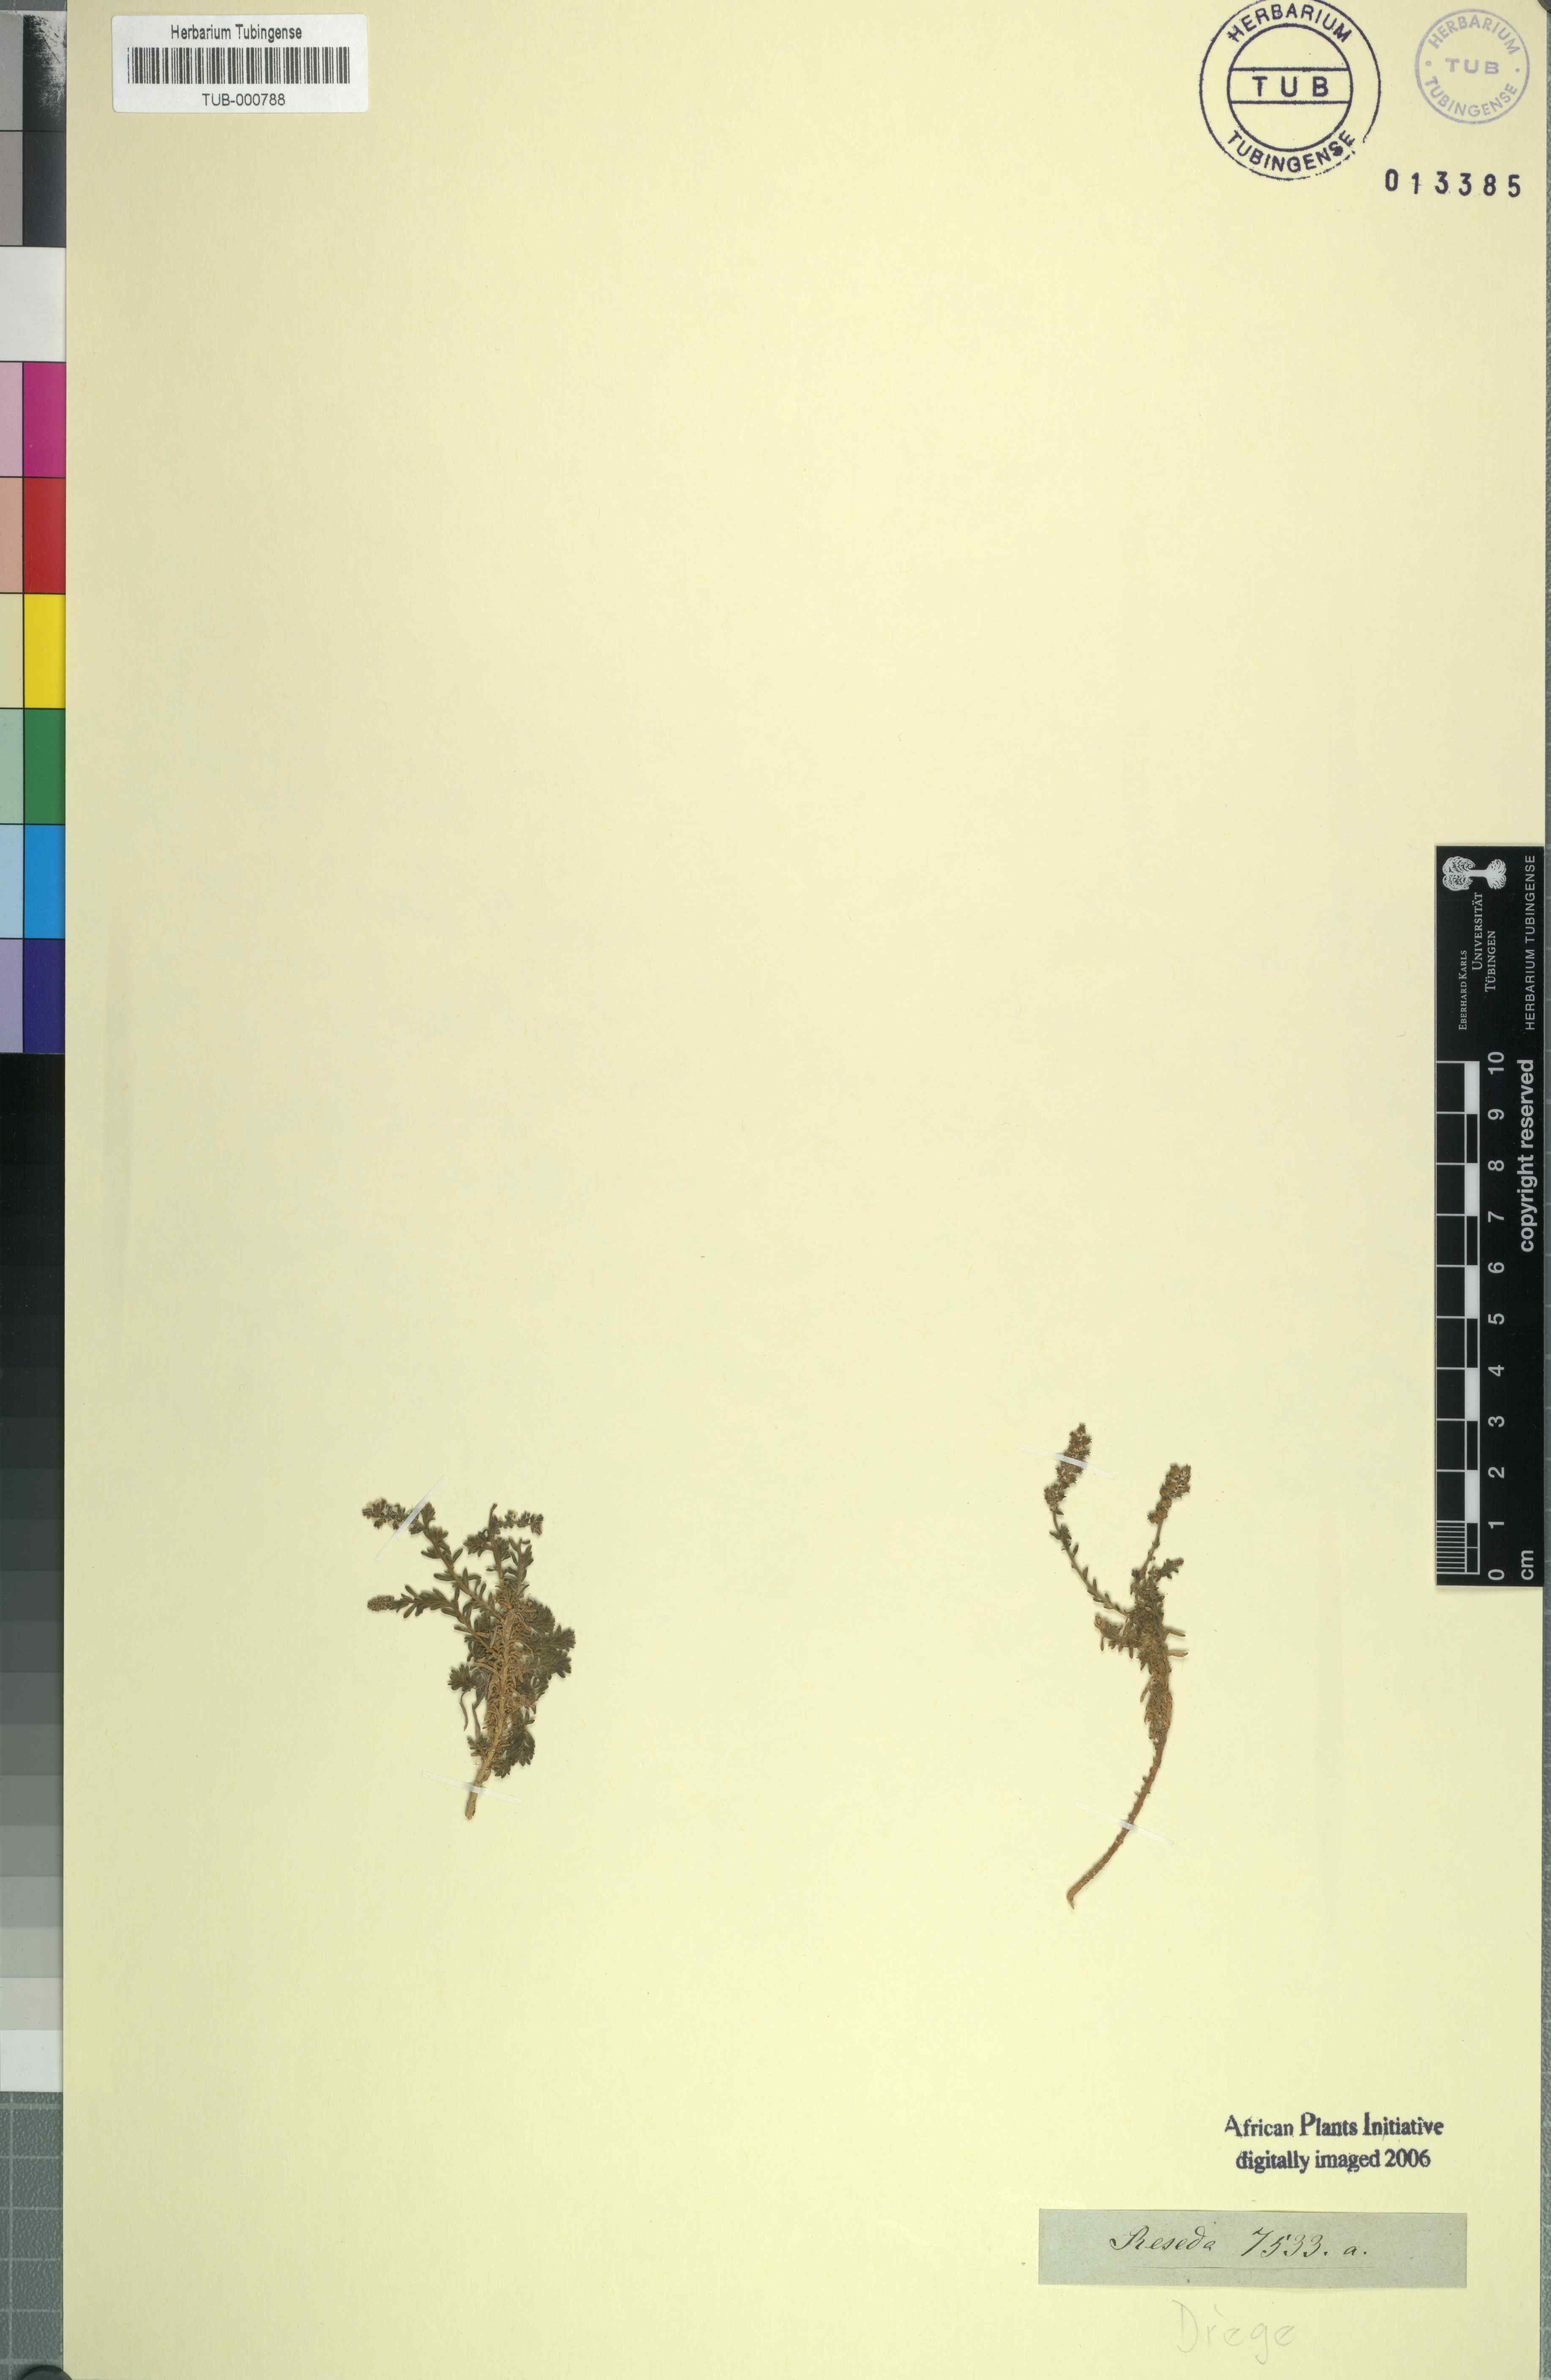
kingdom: Plantae
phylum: Tracheophyta
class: Magnoliopsida
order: Brassicales
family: Resedaceae
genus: Reseda
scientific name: Reseda
